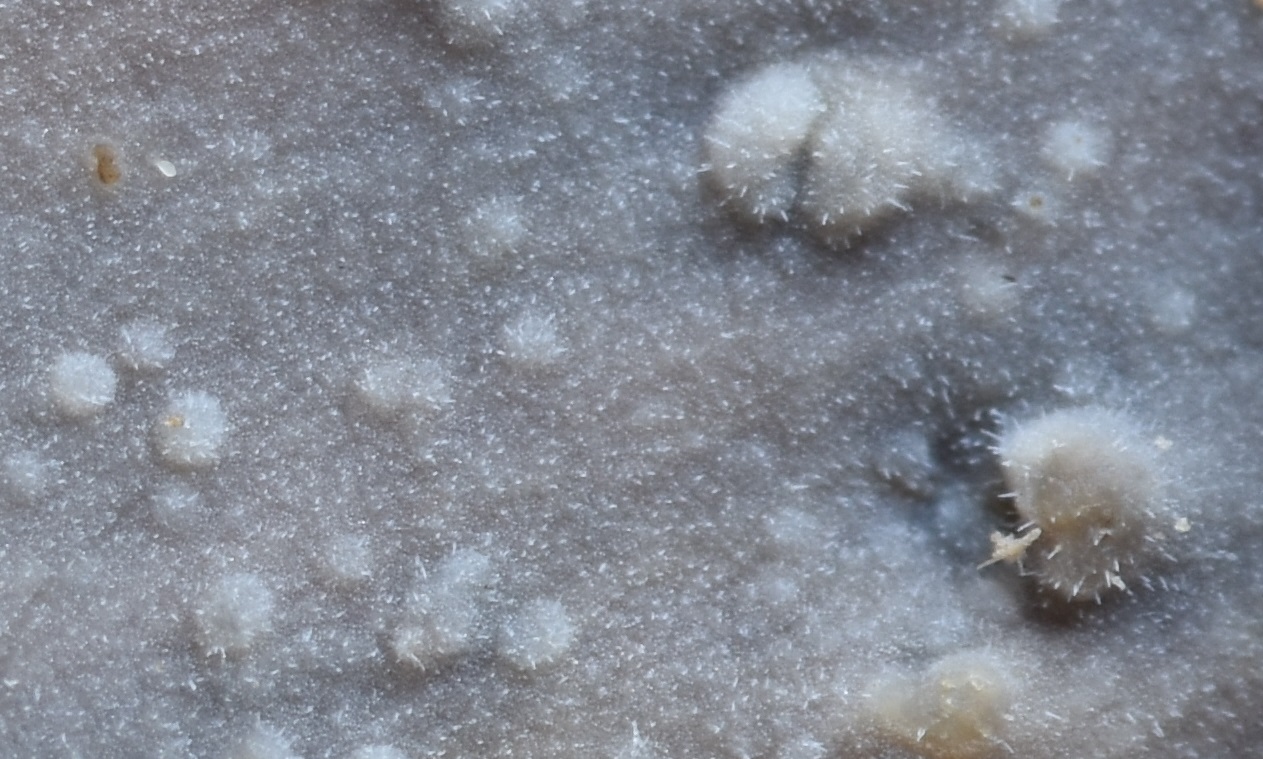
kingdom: Fungi
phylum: Basidiomycota
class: Agaricomycetes
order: Hymenochaetales
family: Rickenellaceae
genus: Peniophorella
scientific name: Peniophorella pubera
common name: dunet kalkskind
